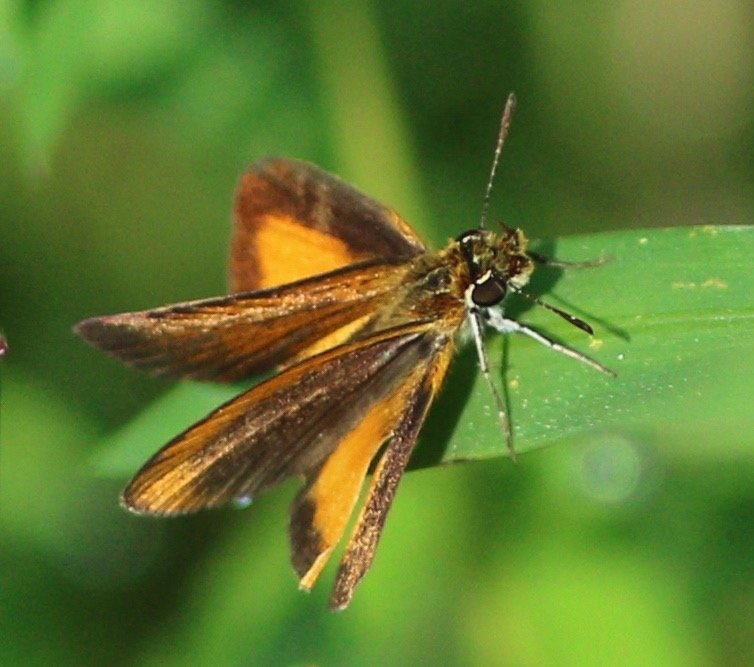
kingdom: Animalia
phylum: Arthropoda
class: Insecta
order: Lepidoptera
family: Hesperiidae
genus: Ancyloxypha
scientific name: Ancyloxypha numitor
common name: Least Skipper
